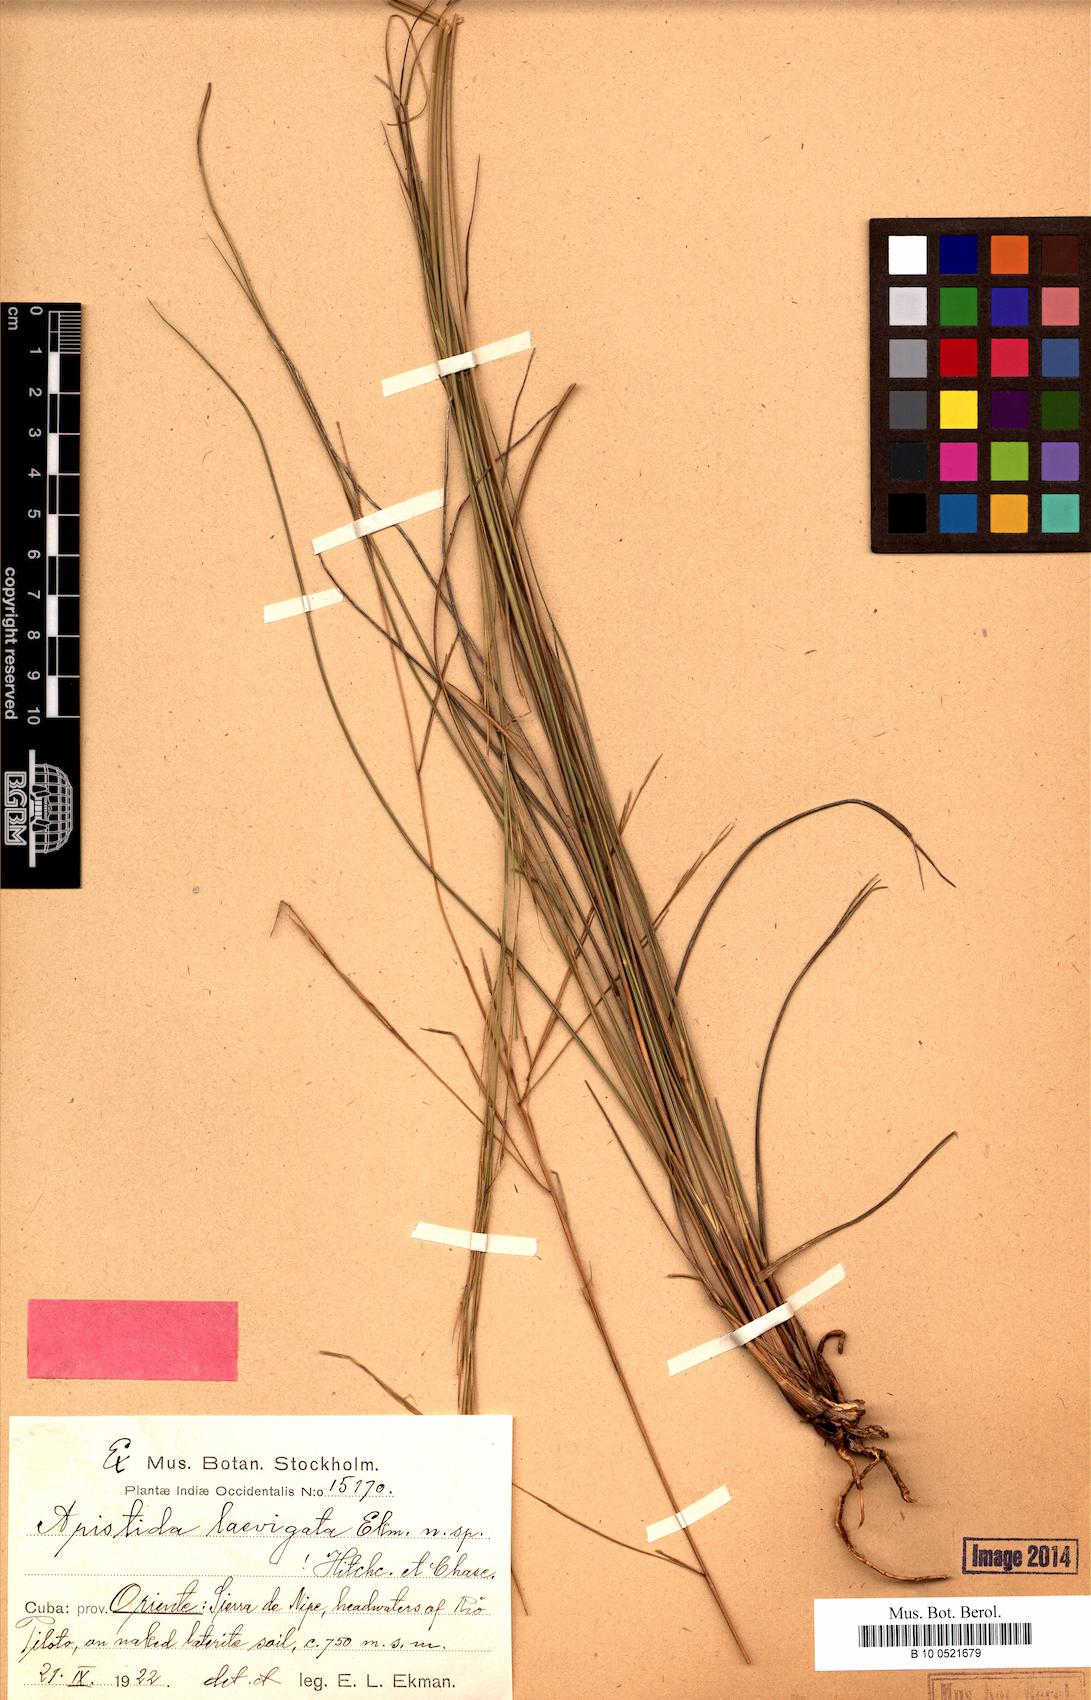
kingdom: Plantae
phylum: Tracheophyta
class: Liliopsida
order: Poales
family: Poaceae
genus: Aristida
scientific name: Aristida laevigata
